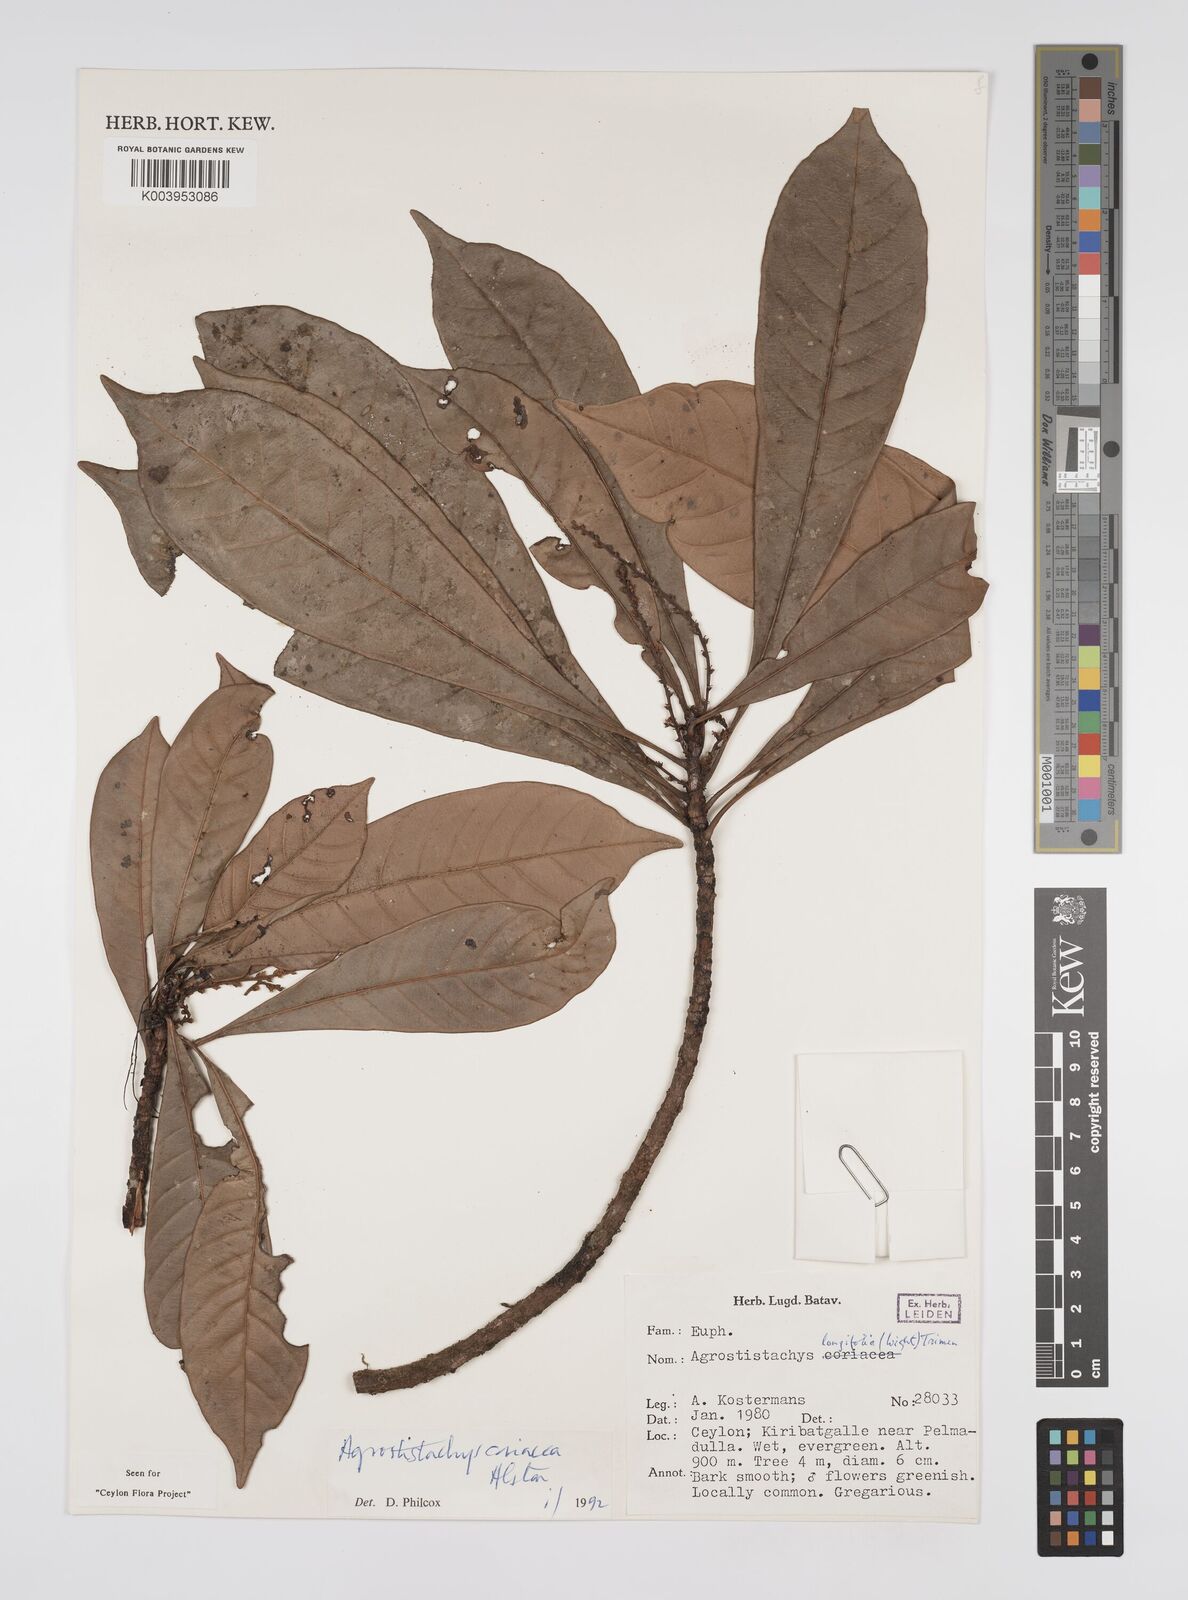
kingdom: Plantae
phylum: Tracheophyta
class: Magnoliopsida
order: Malpighiales
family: Euphorbiaceae
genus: Agrostistachys
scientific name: Agrostistachys borneensis
